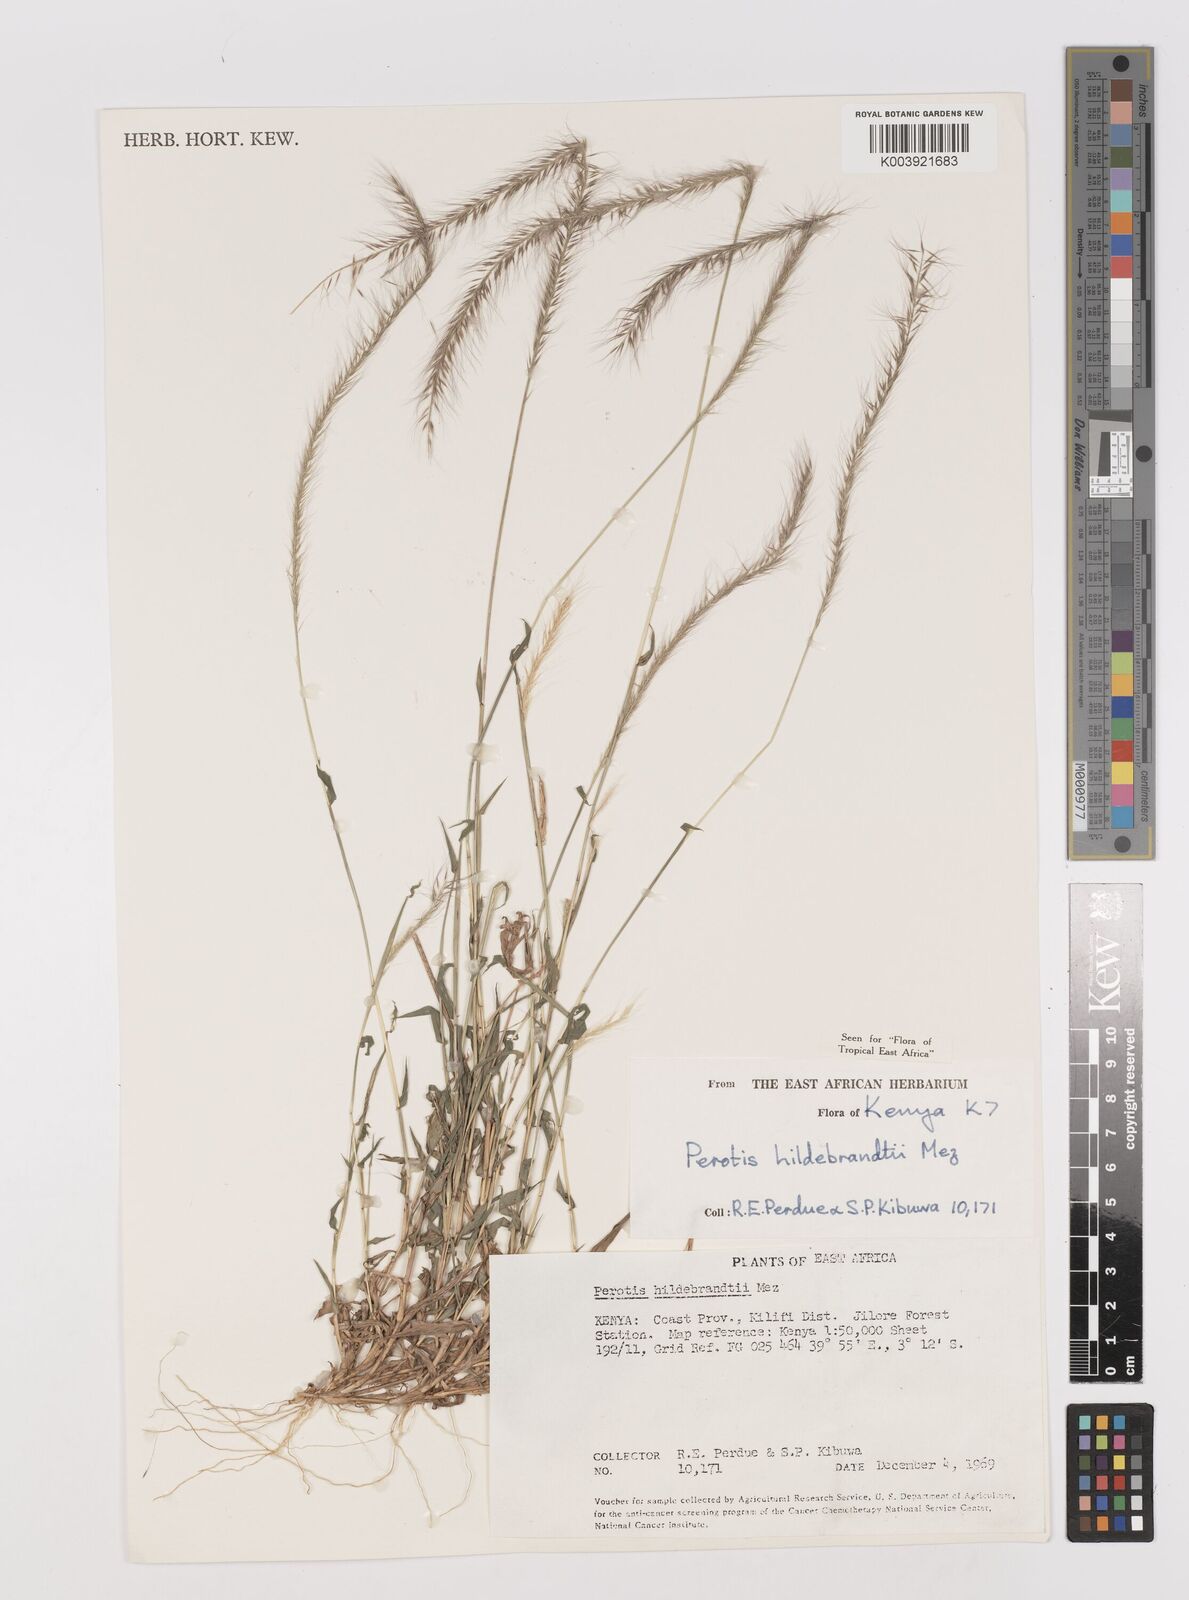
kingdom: Plantae
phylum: Tracheophyta
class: Liliopsida
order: Poales
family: Poaceae
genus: Perotis
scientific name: Perotis hildebrandtii
